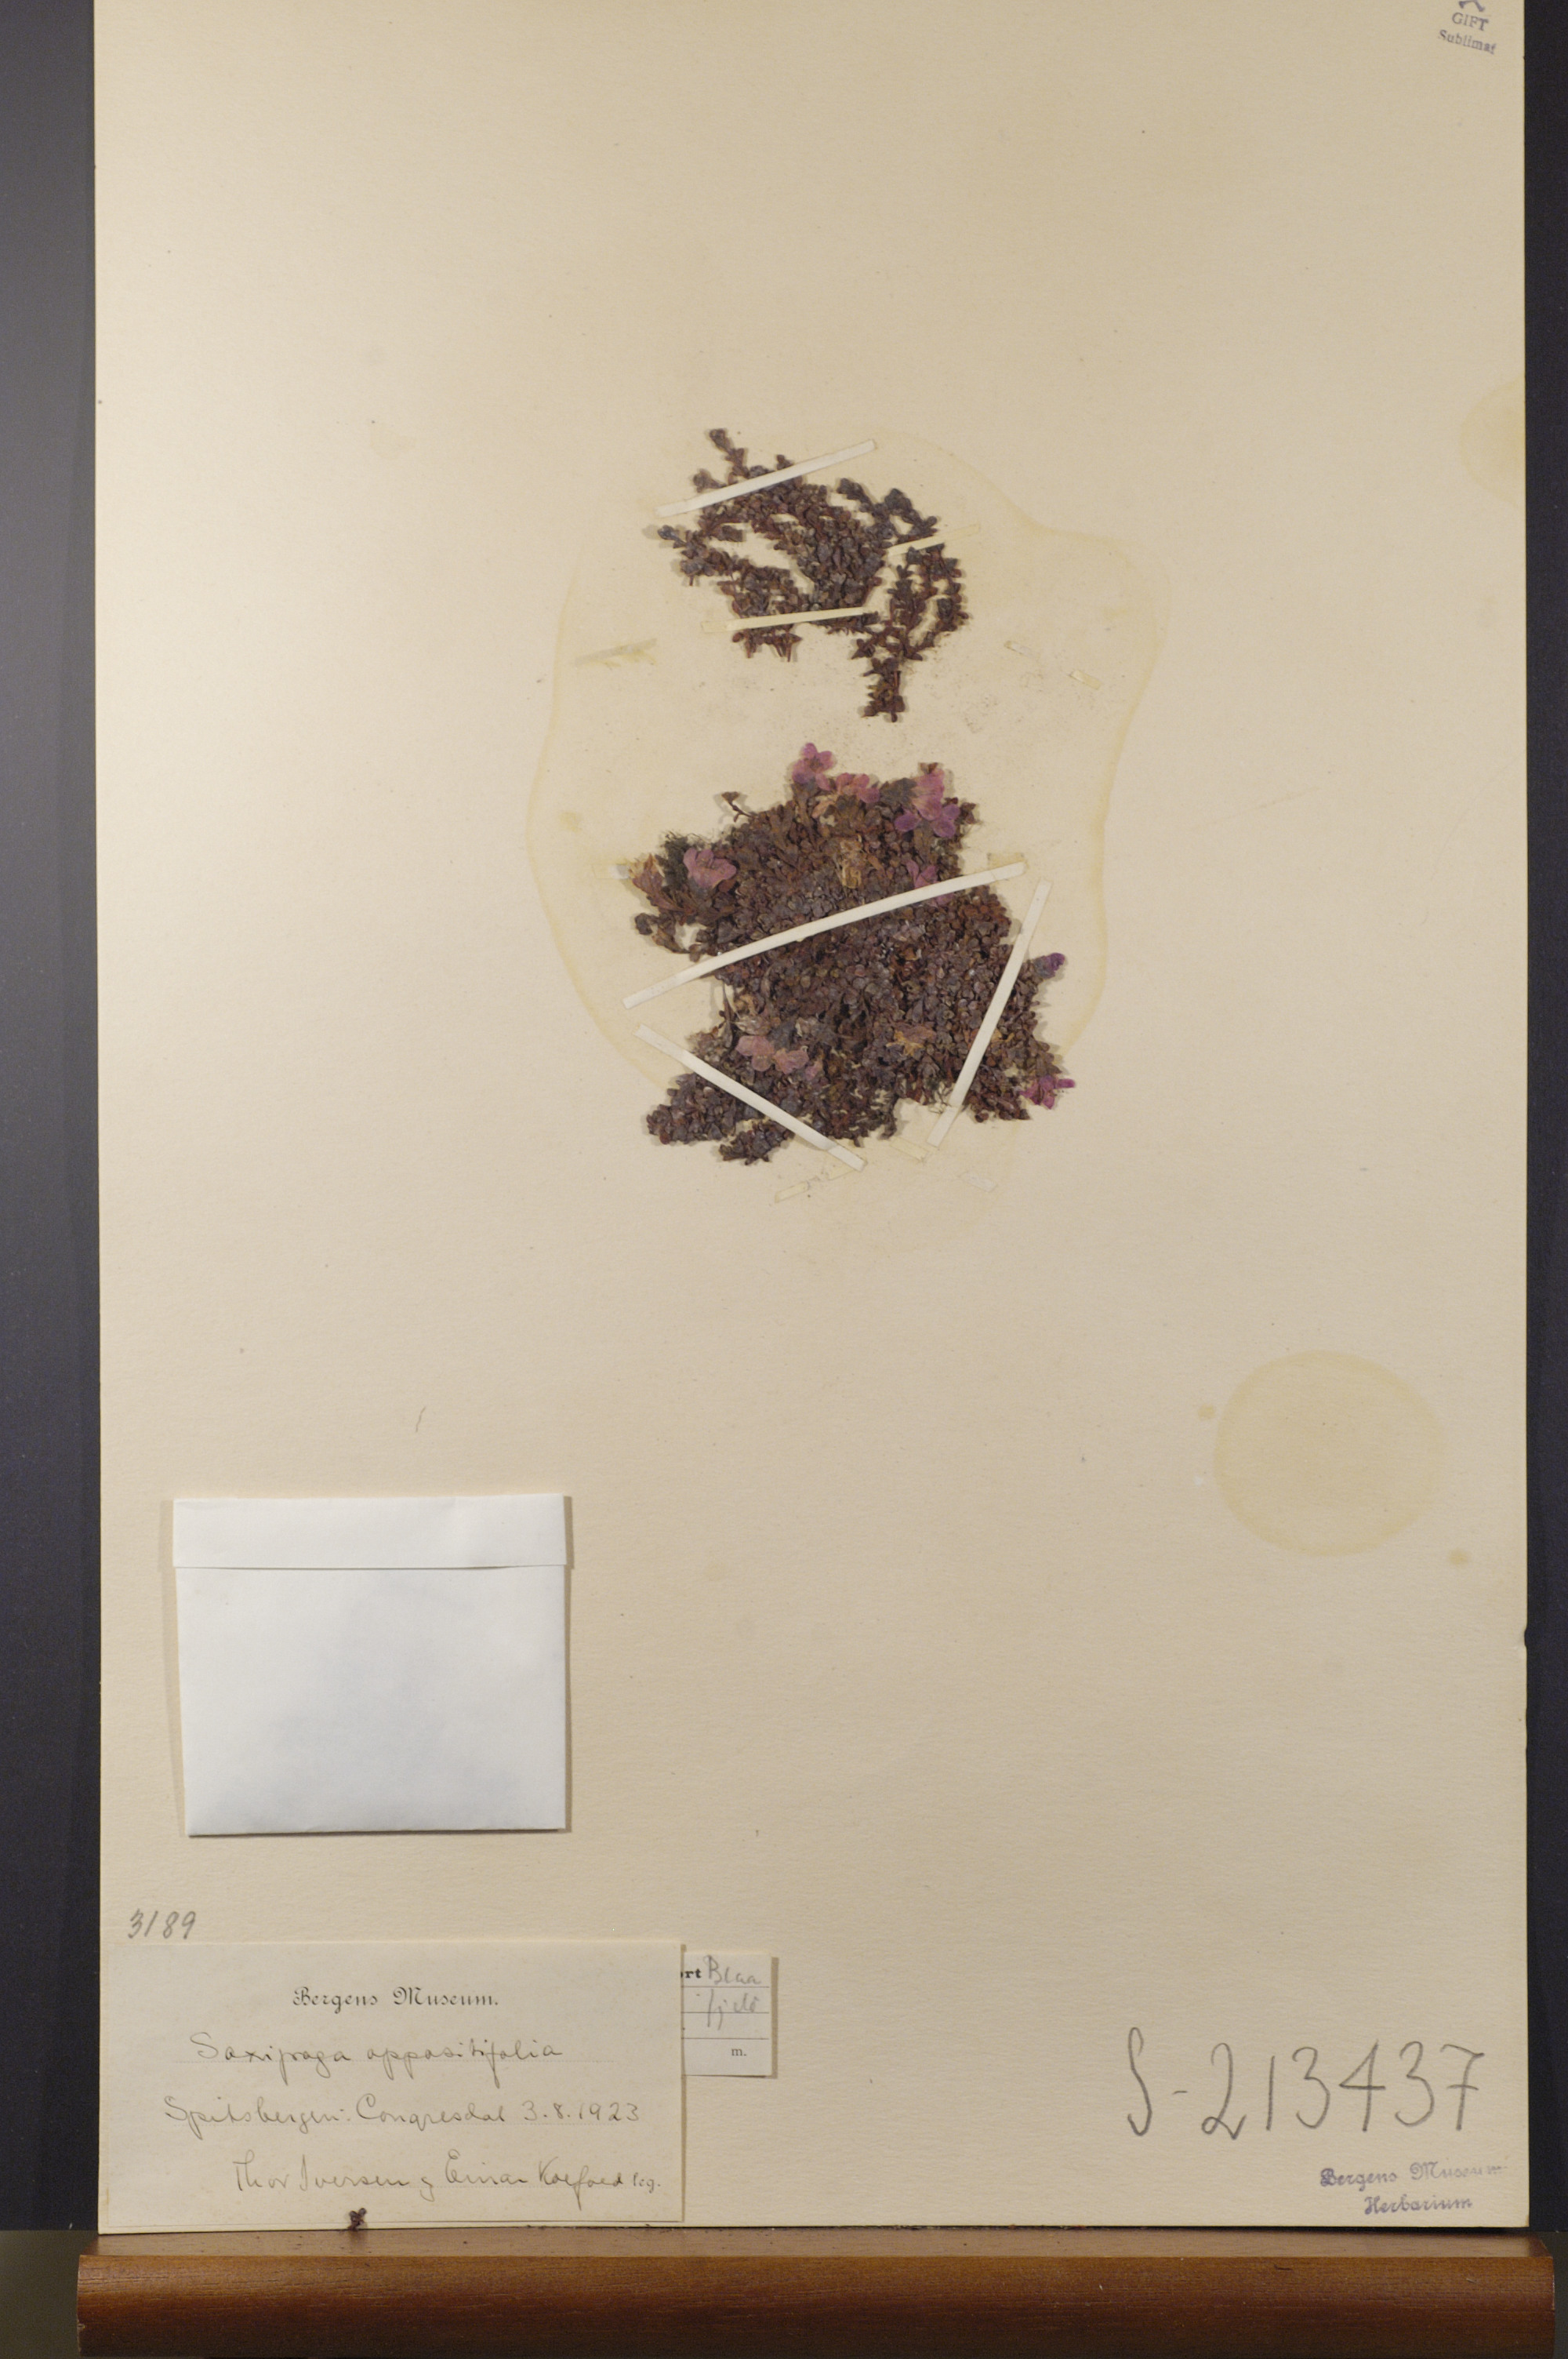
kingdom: Plantae
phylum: Tracheophyta
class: Magnoliopsida
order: Saxifragales
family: Saxifragaceae
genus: Saxifraga
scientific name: Saxifraga oppositifolia
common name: Purple saxifrage
